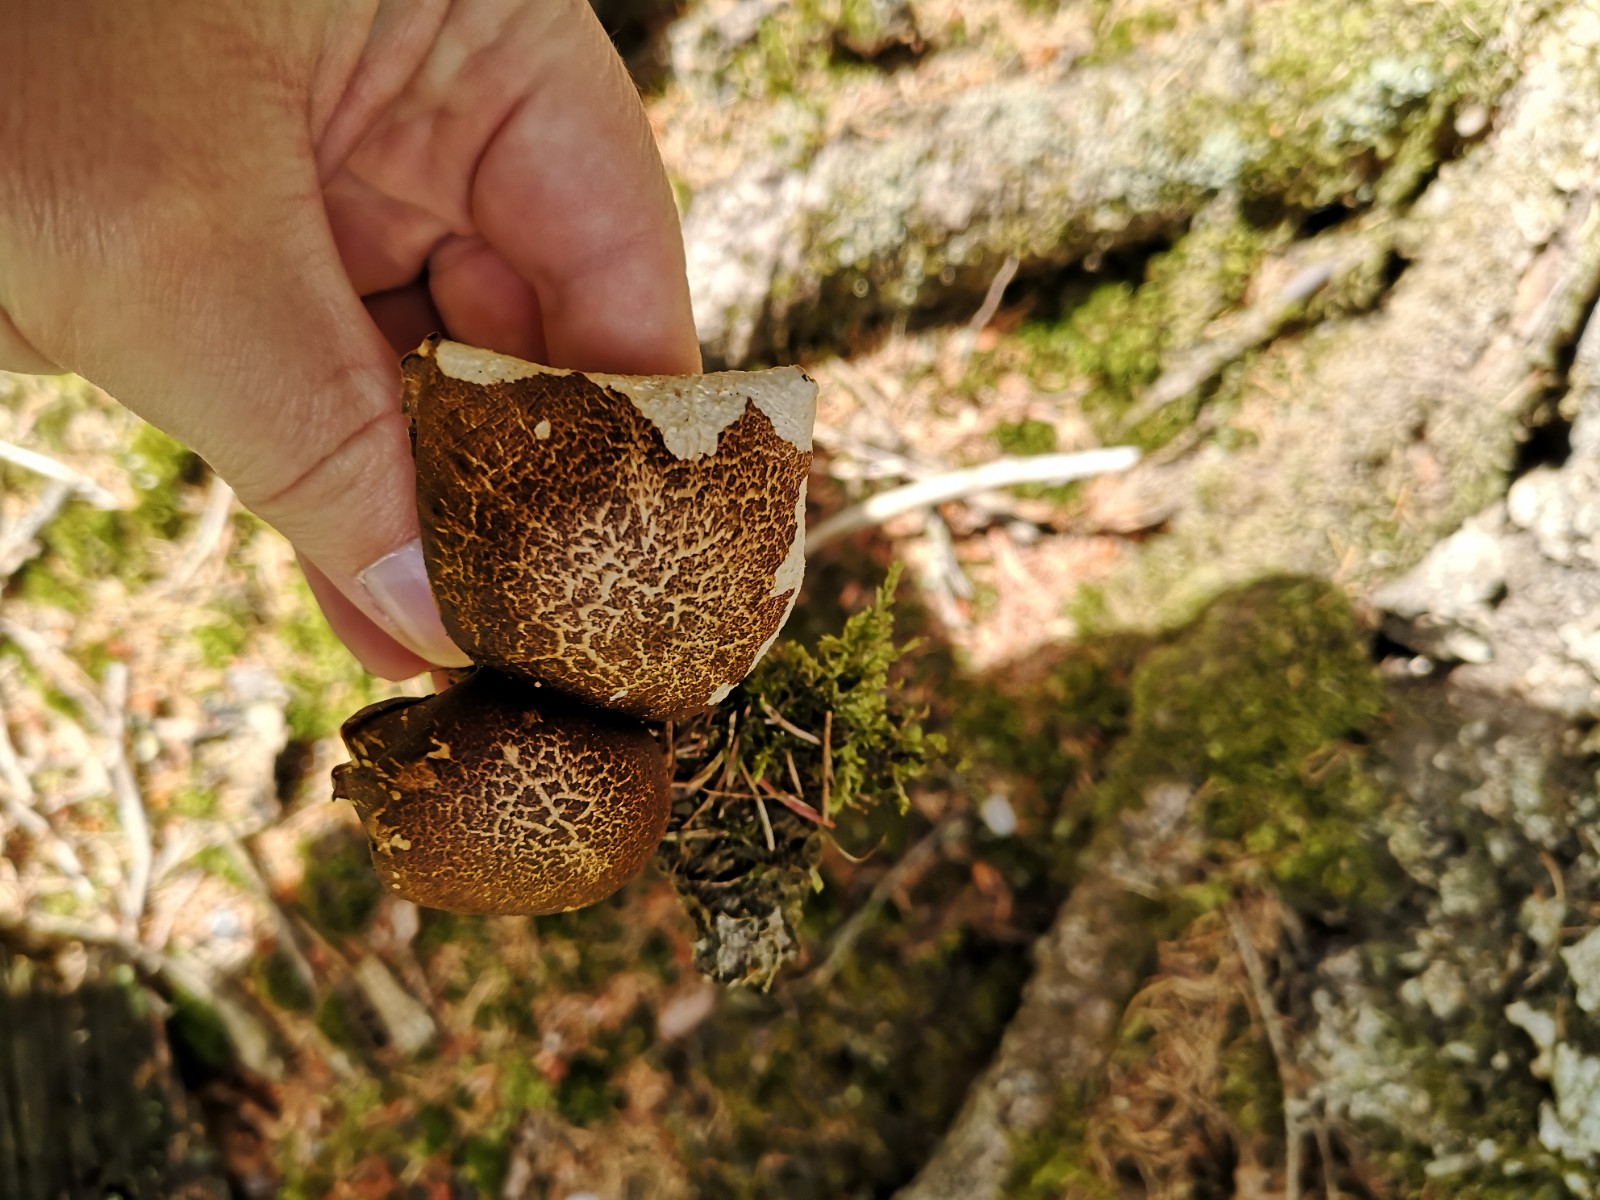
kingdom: Fungi
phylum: Basidiomycota
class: Agaricomycetes
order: Polyporales
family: Polyporaceae
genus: Lentinus
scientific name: Lentinus substrictus
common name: forårs-stilkporesvamp
